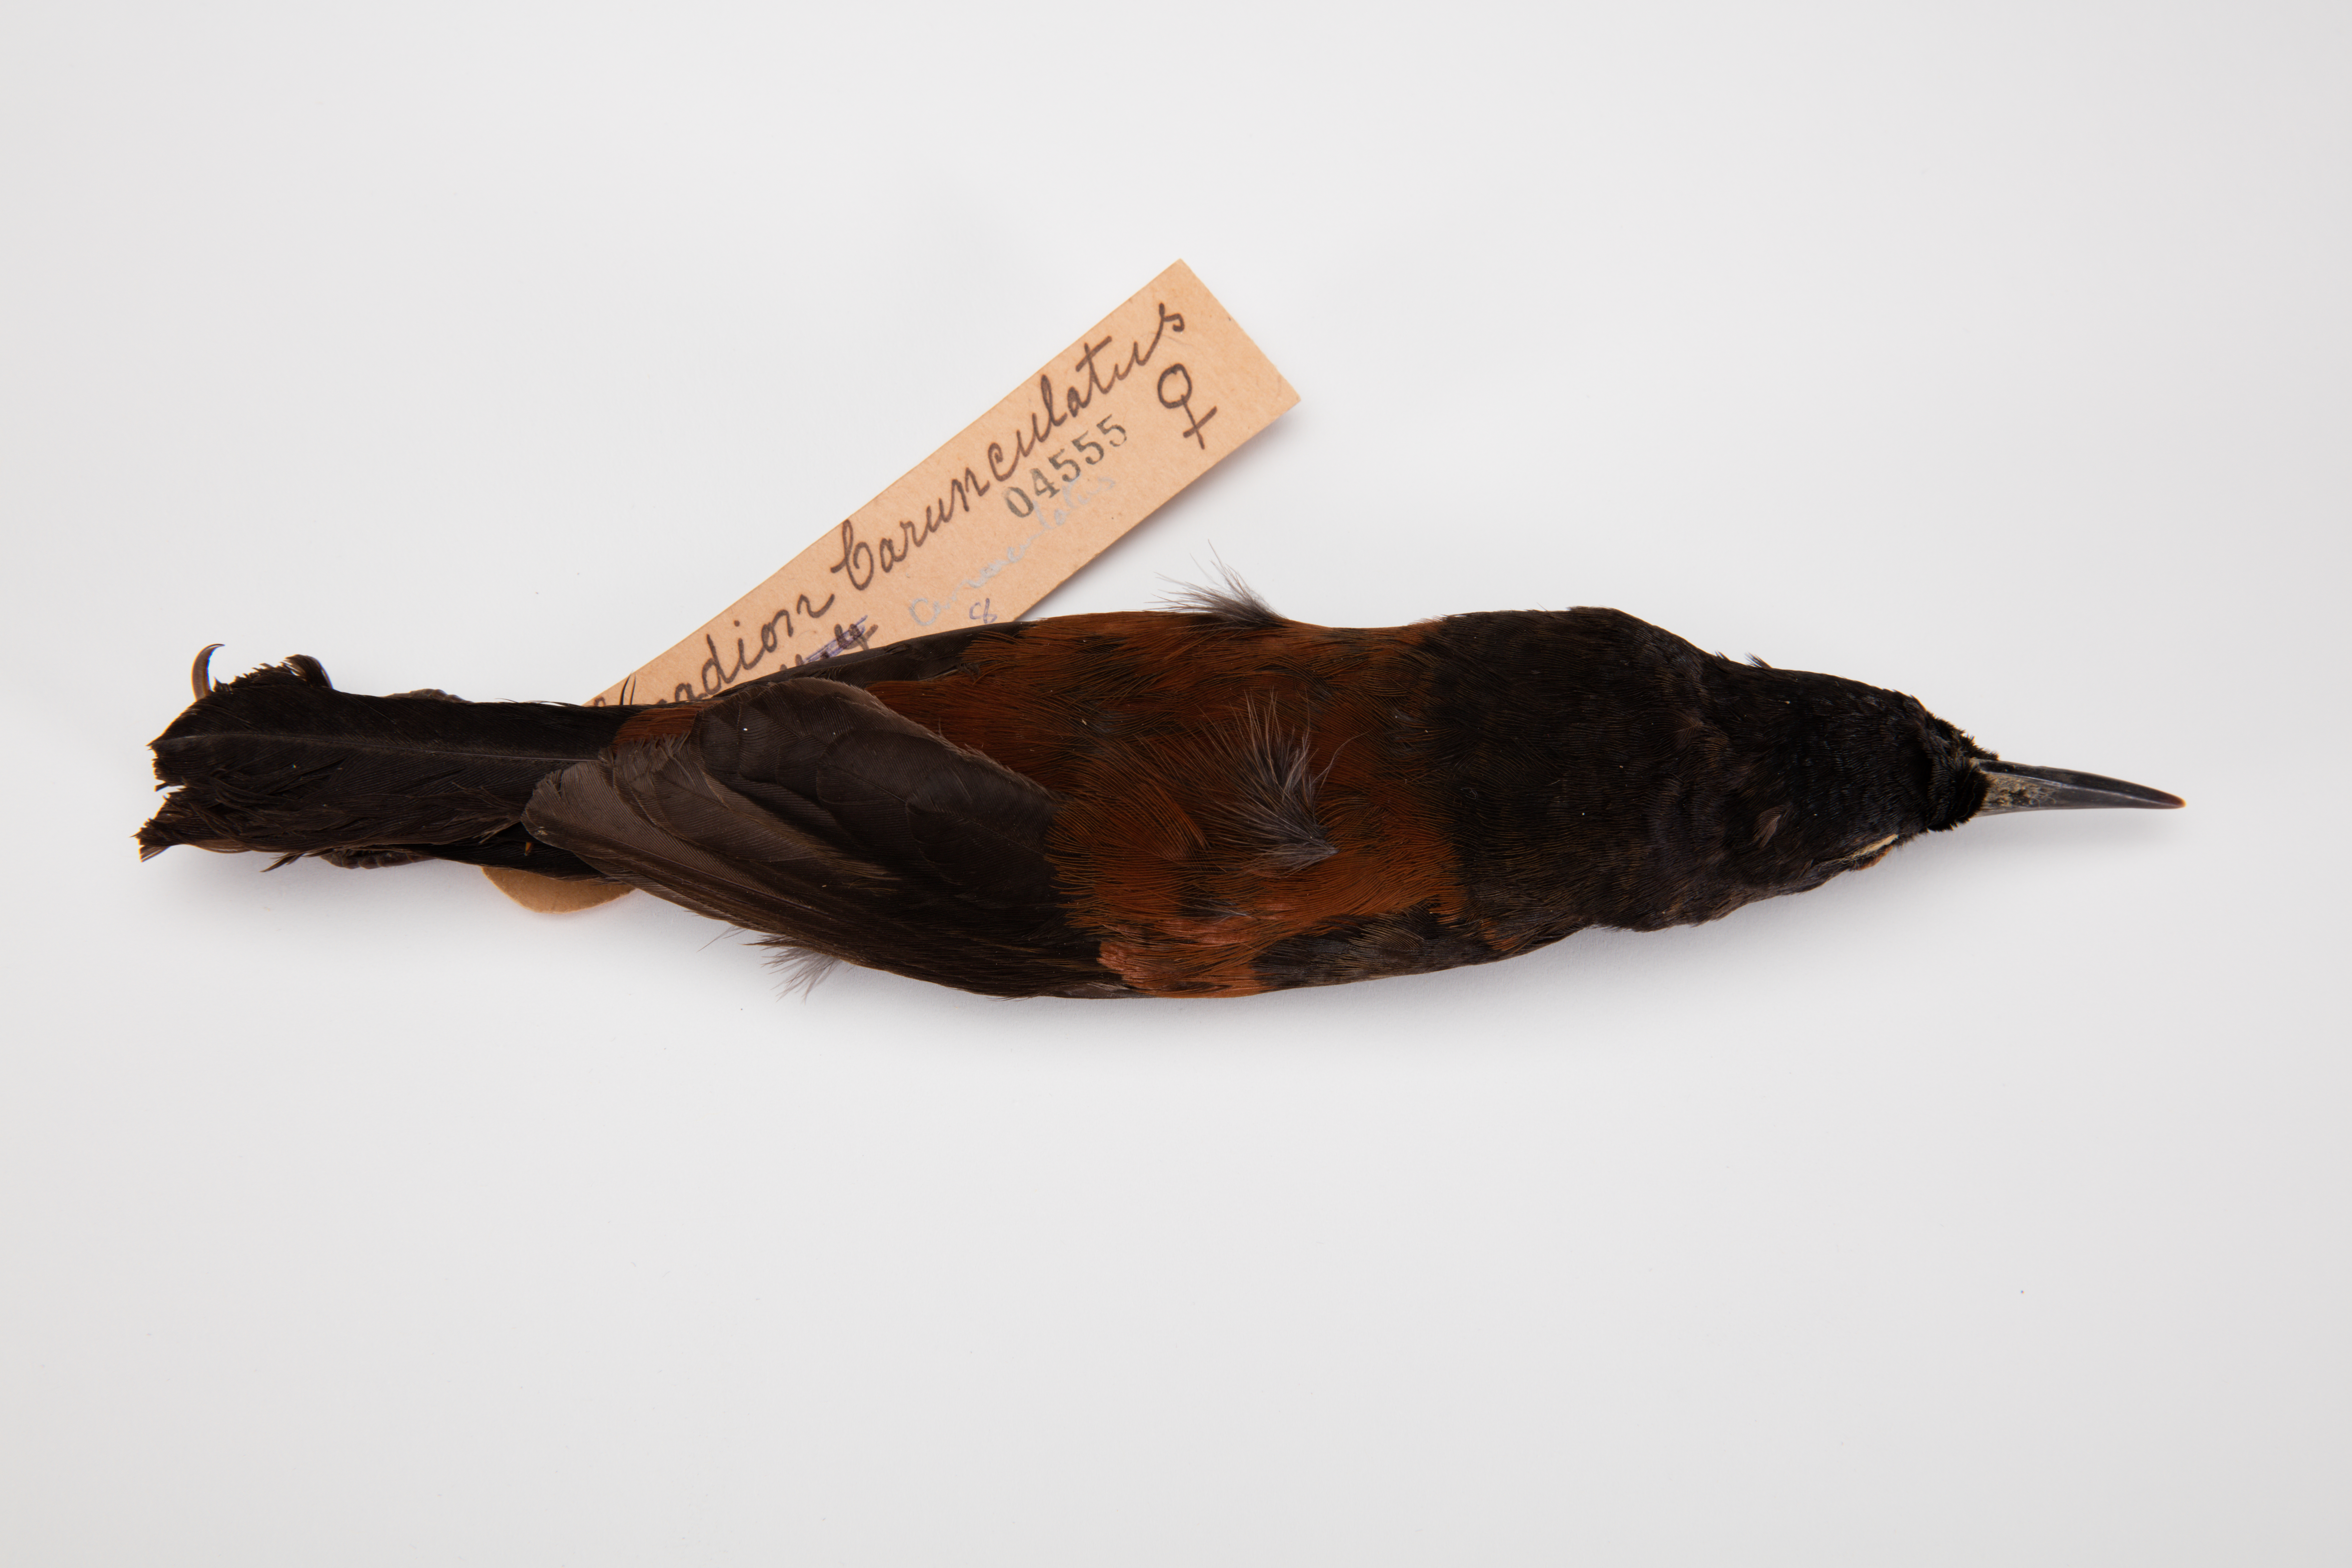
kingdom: Animalia
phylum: Chordata
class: Aves
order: Passeriformes
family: Callaeatidae
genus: Philesturnus
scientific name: Philesturnus carunculatus
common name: South island saddleback
